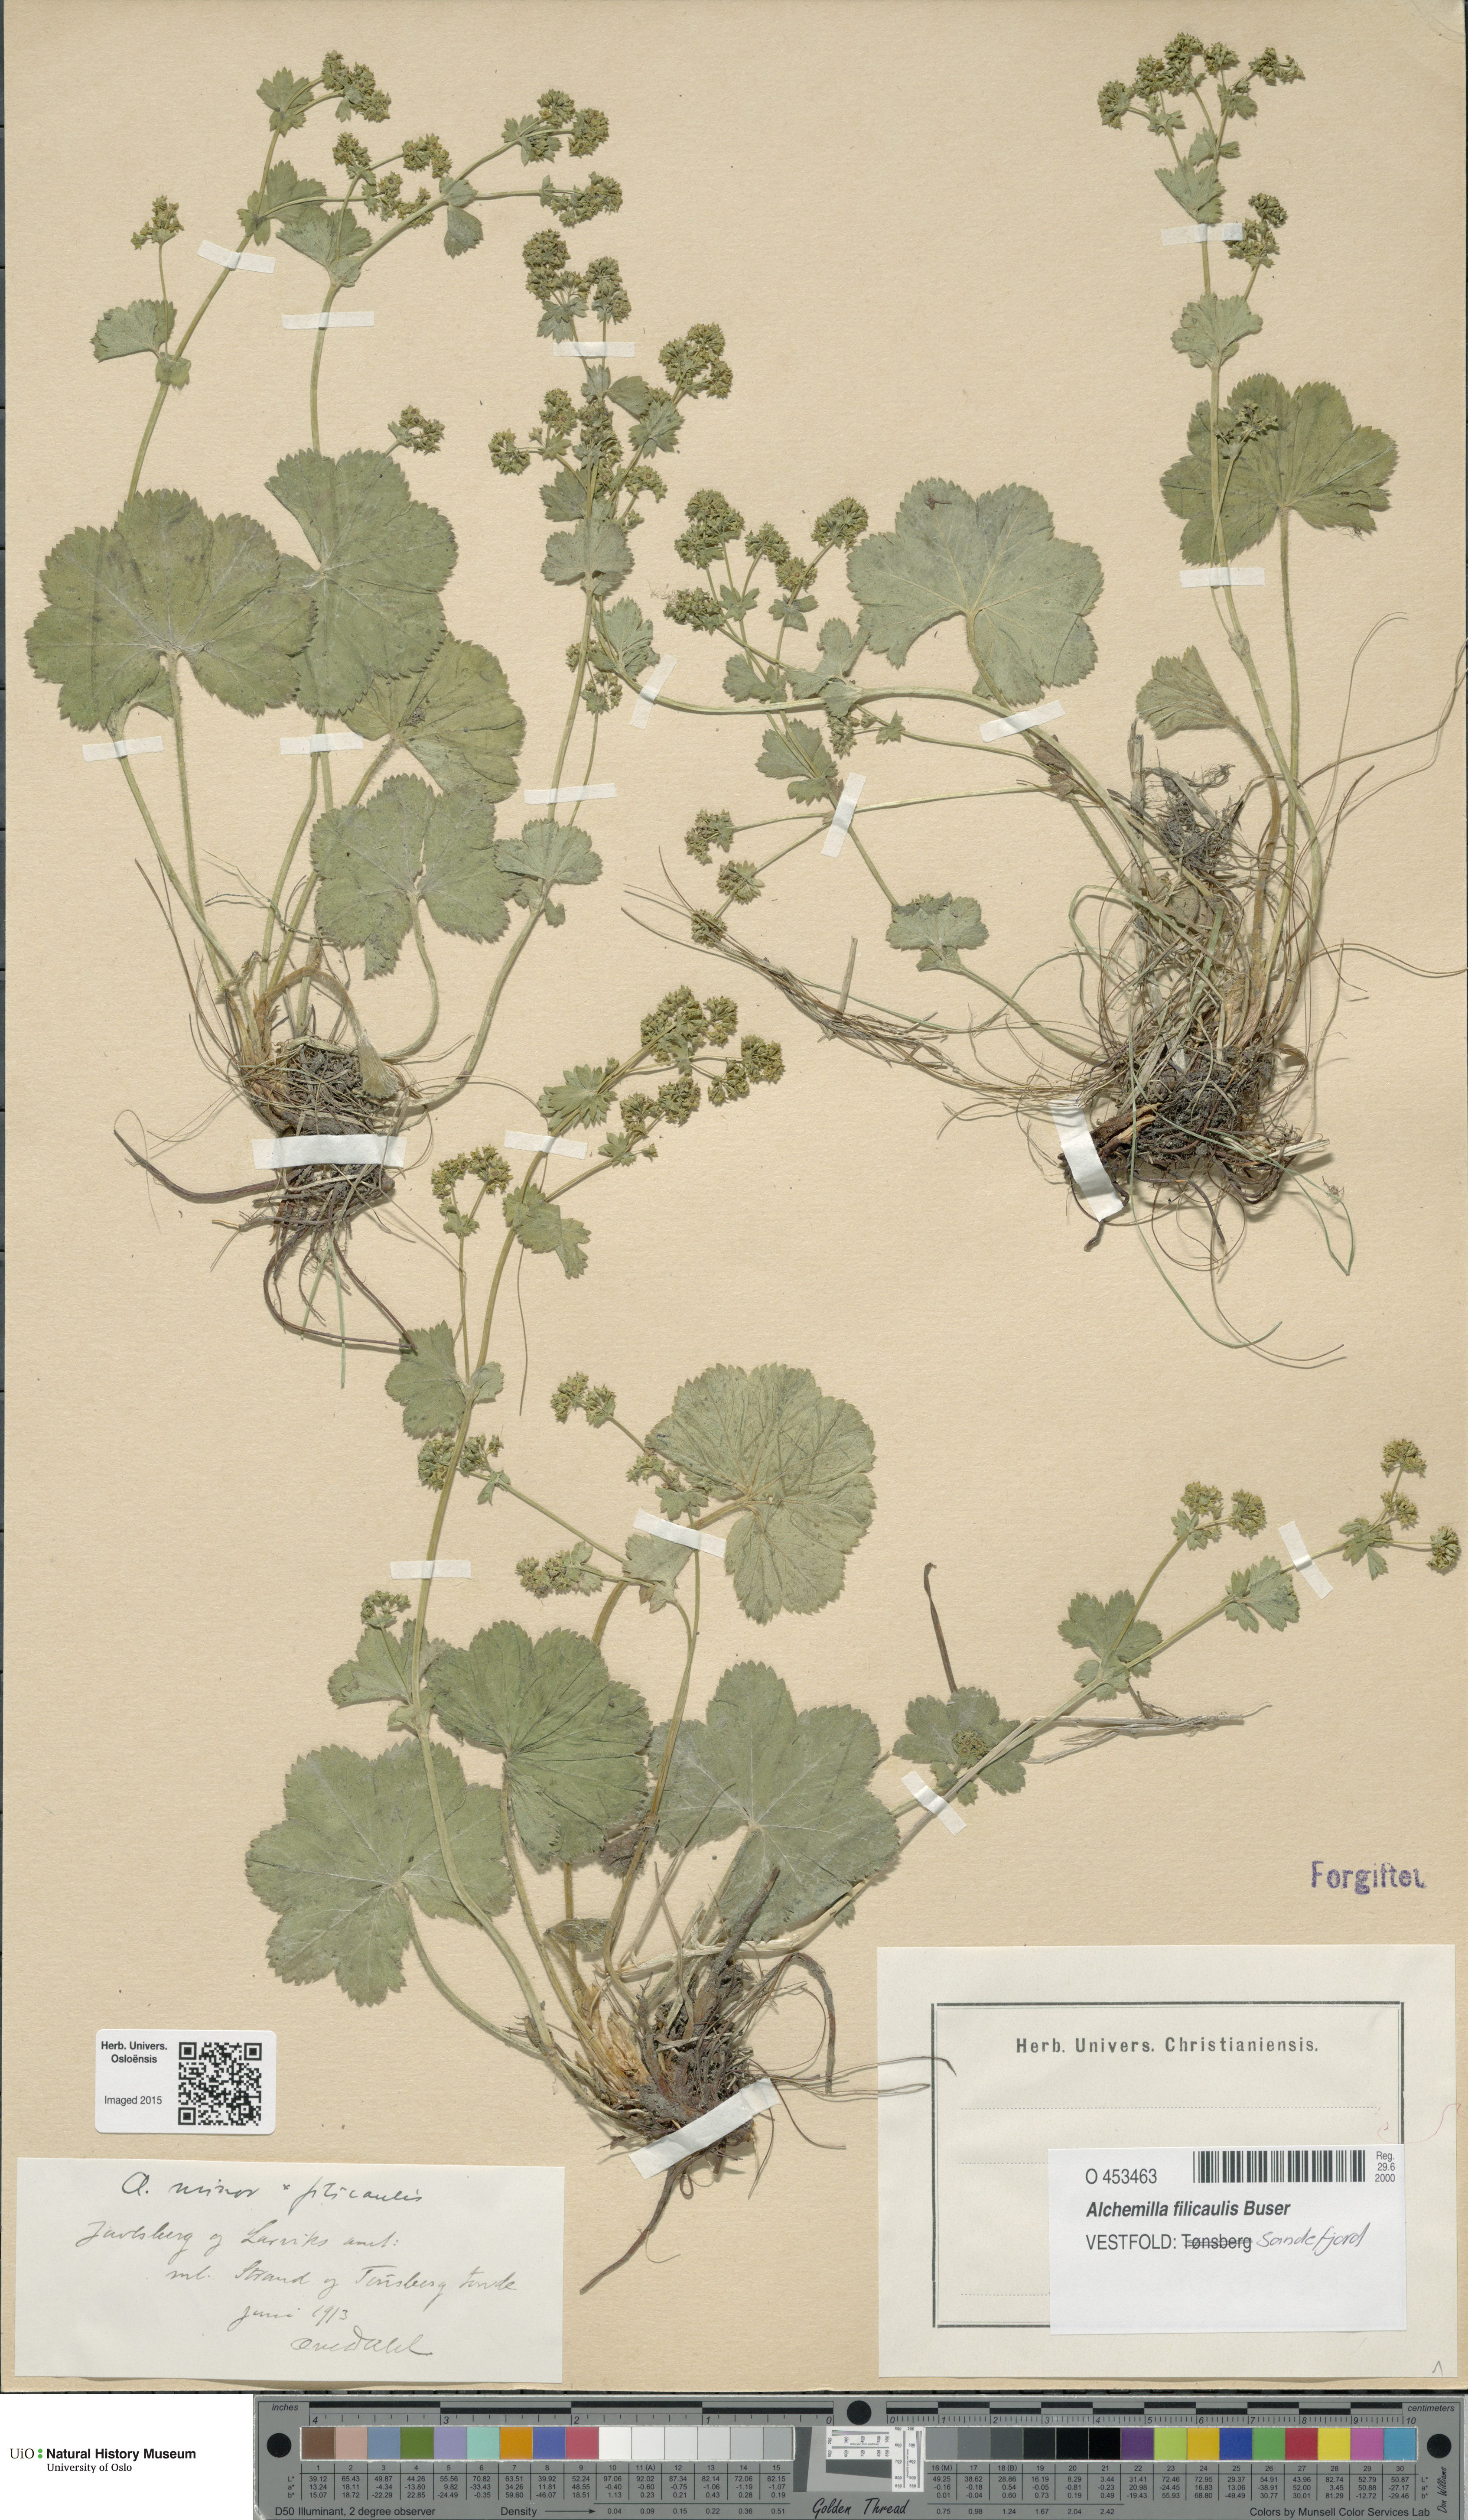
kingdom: Plantae
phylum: Tracheophyta
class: Magnoliopsida
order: Rosales
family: Rosaceae
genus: Alchemilla
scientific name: Alchemilla filicaulis
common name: Hairy lady's-mantle
